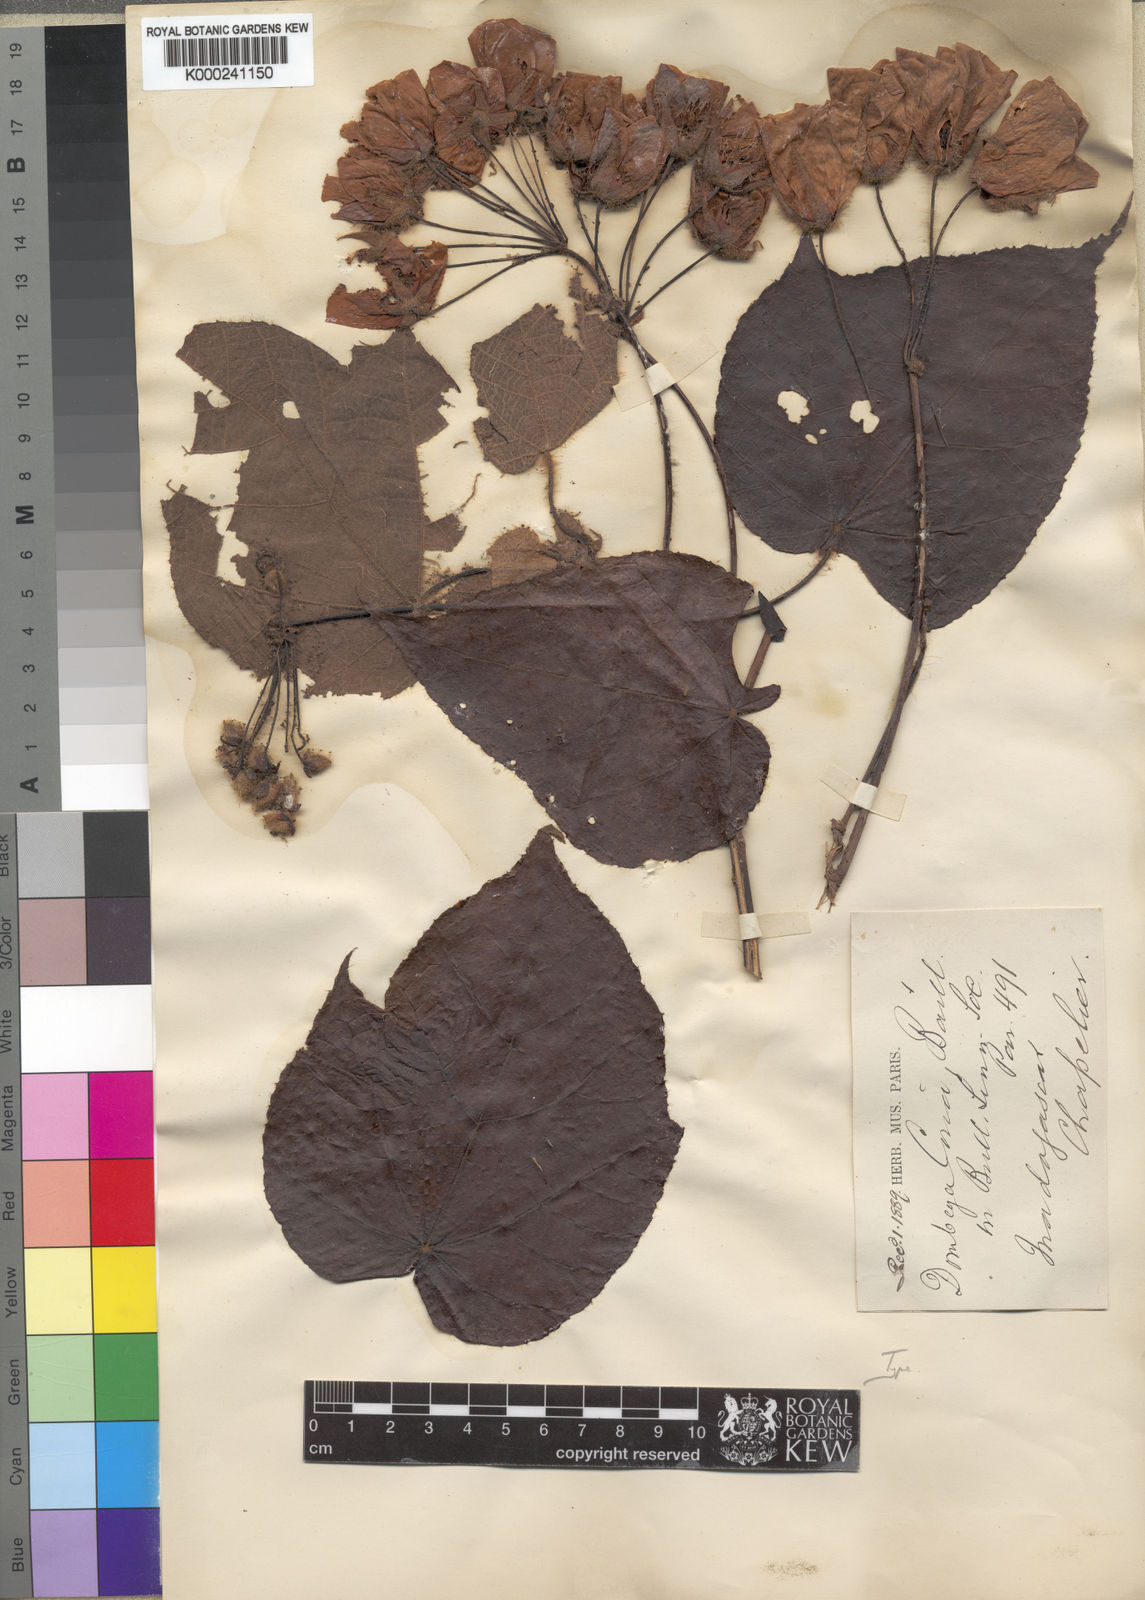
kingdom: Plantae
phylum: Tracheophyta
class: Magnoliopsida
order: Malvales
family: Malvaceae
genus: Dombeya
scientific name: Dombeya coria
